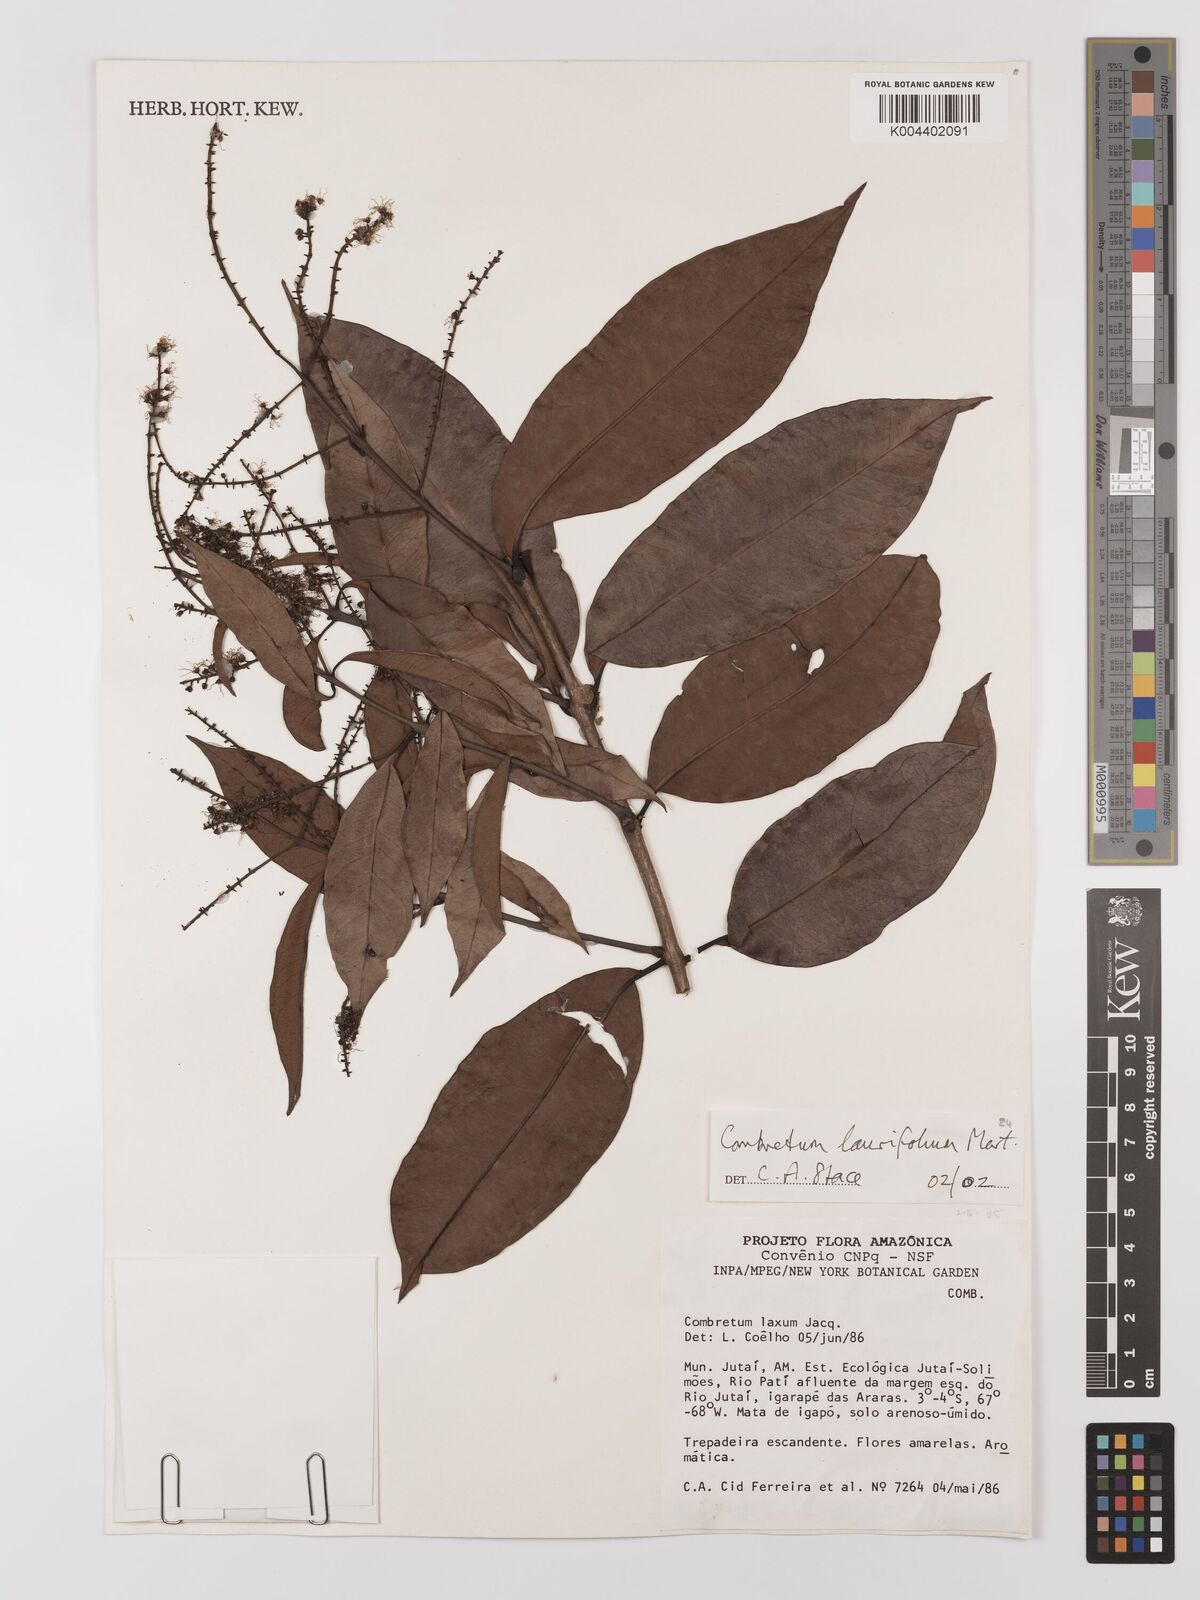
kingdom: Plantae
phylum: Tracheophyta
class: Magnoliopsida
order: Myrtales
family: Combretaceae
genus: Combretum
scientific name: Combretum
